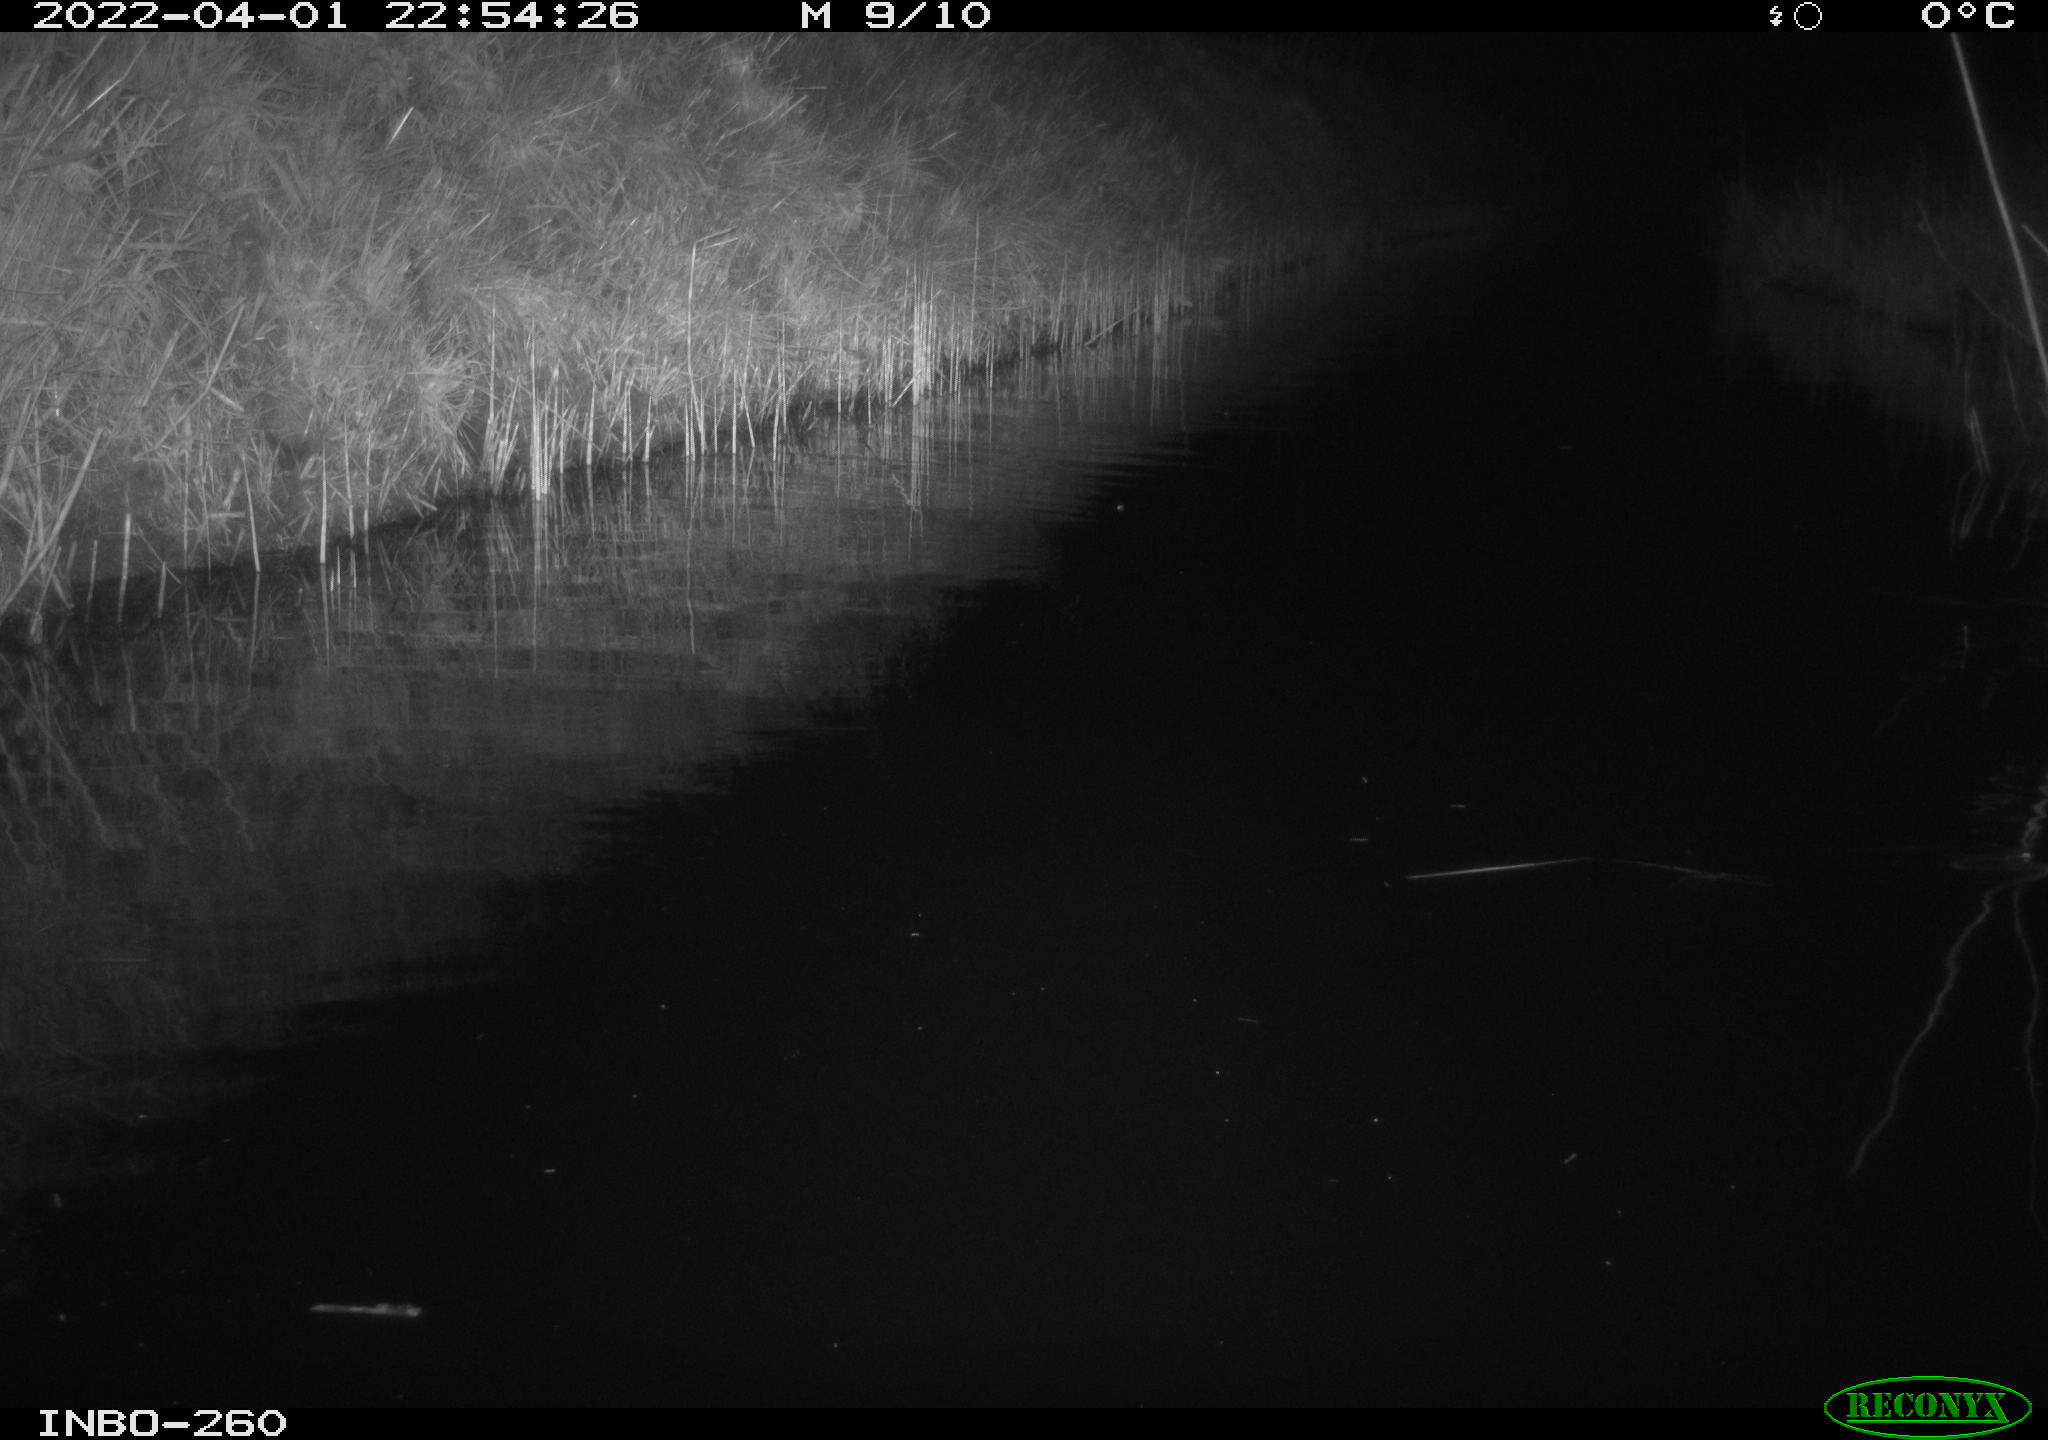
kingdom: Animalia
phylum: Chordata
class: Mammalia
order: Rodentia
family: Muridae
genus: Rattus
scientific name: Rattus norvegicus
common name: Brown rat
